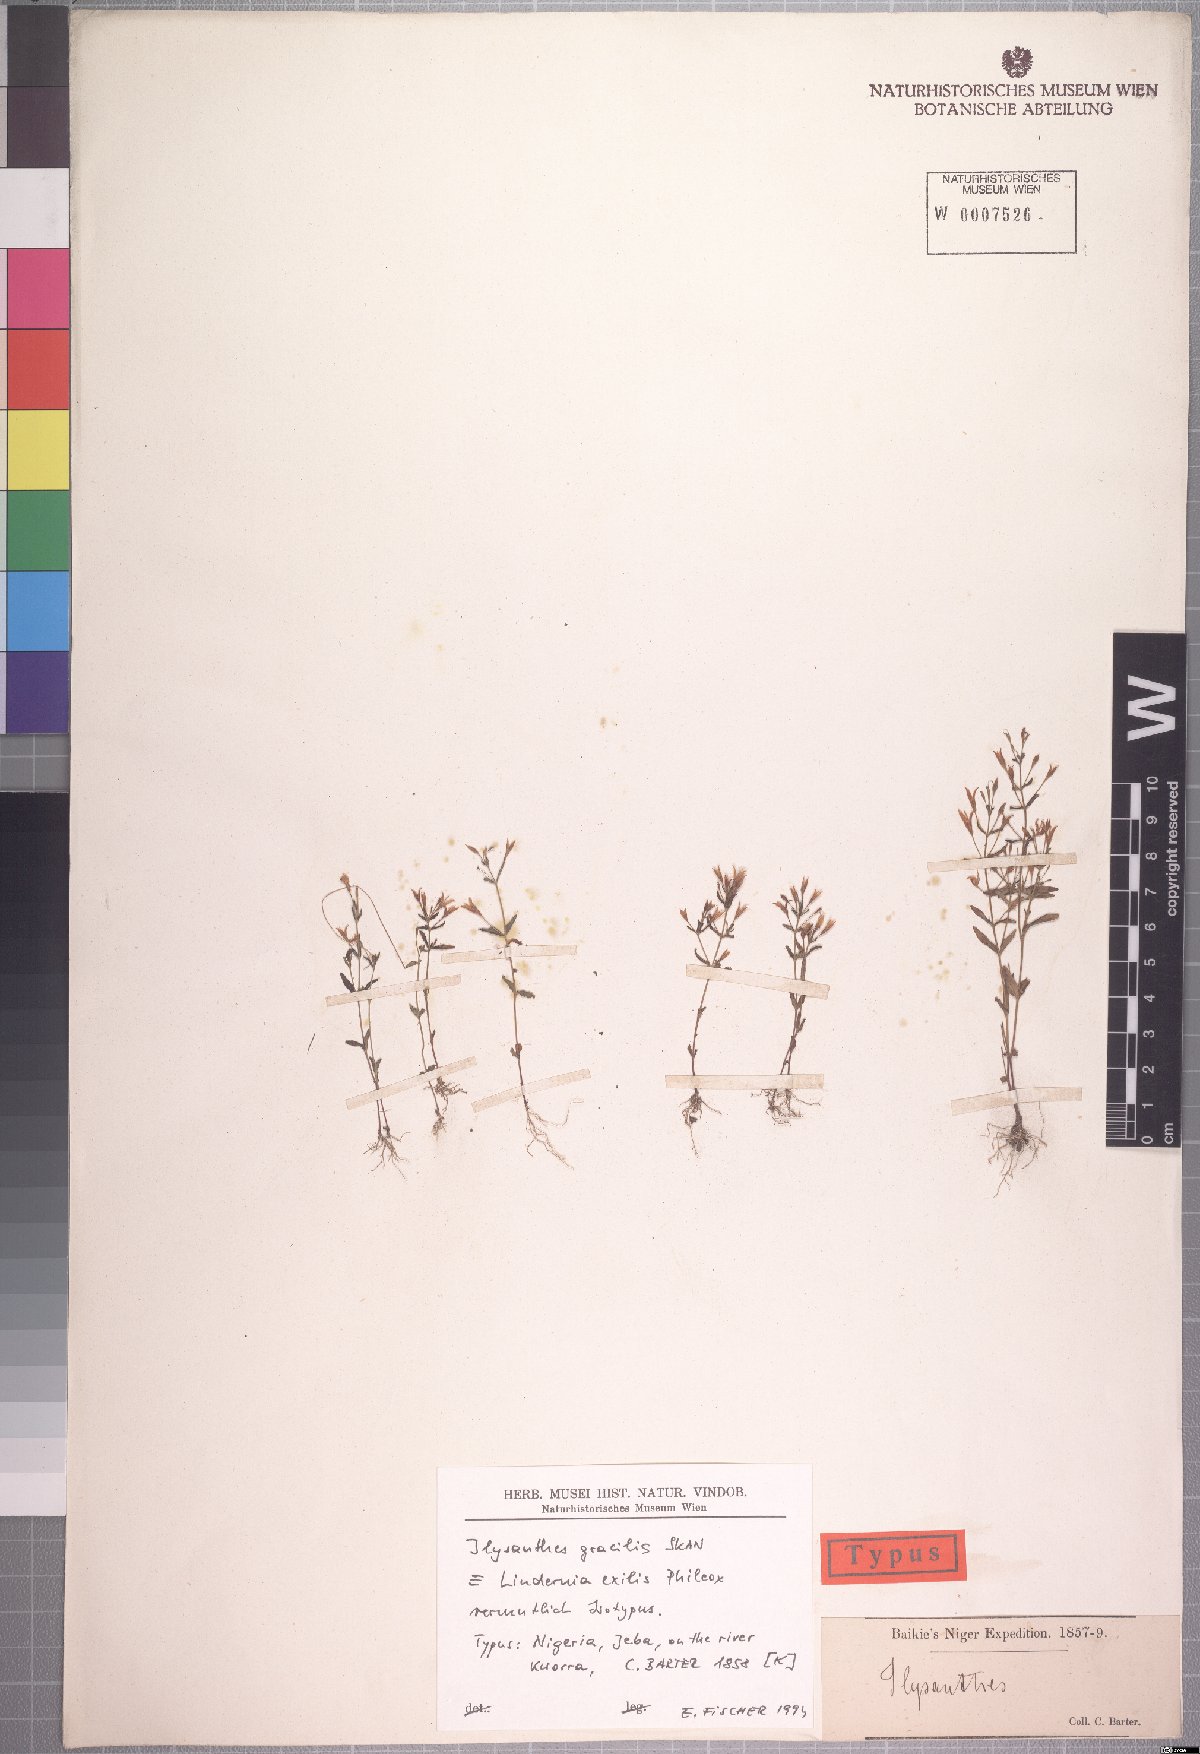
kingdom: Plantae
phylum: Tracheophyta
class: Magnoliopsida
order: Lamiales
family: Linderniaceae
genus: Linderniella
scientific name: Linderniella gracilis
